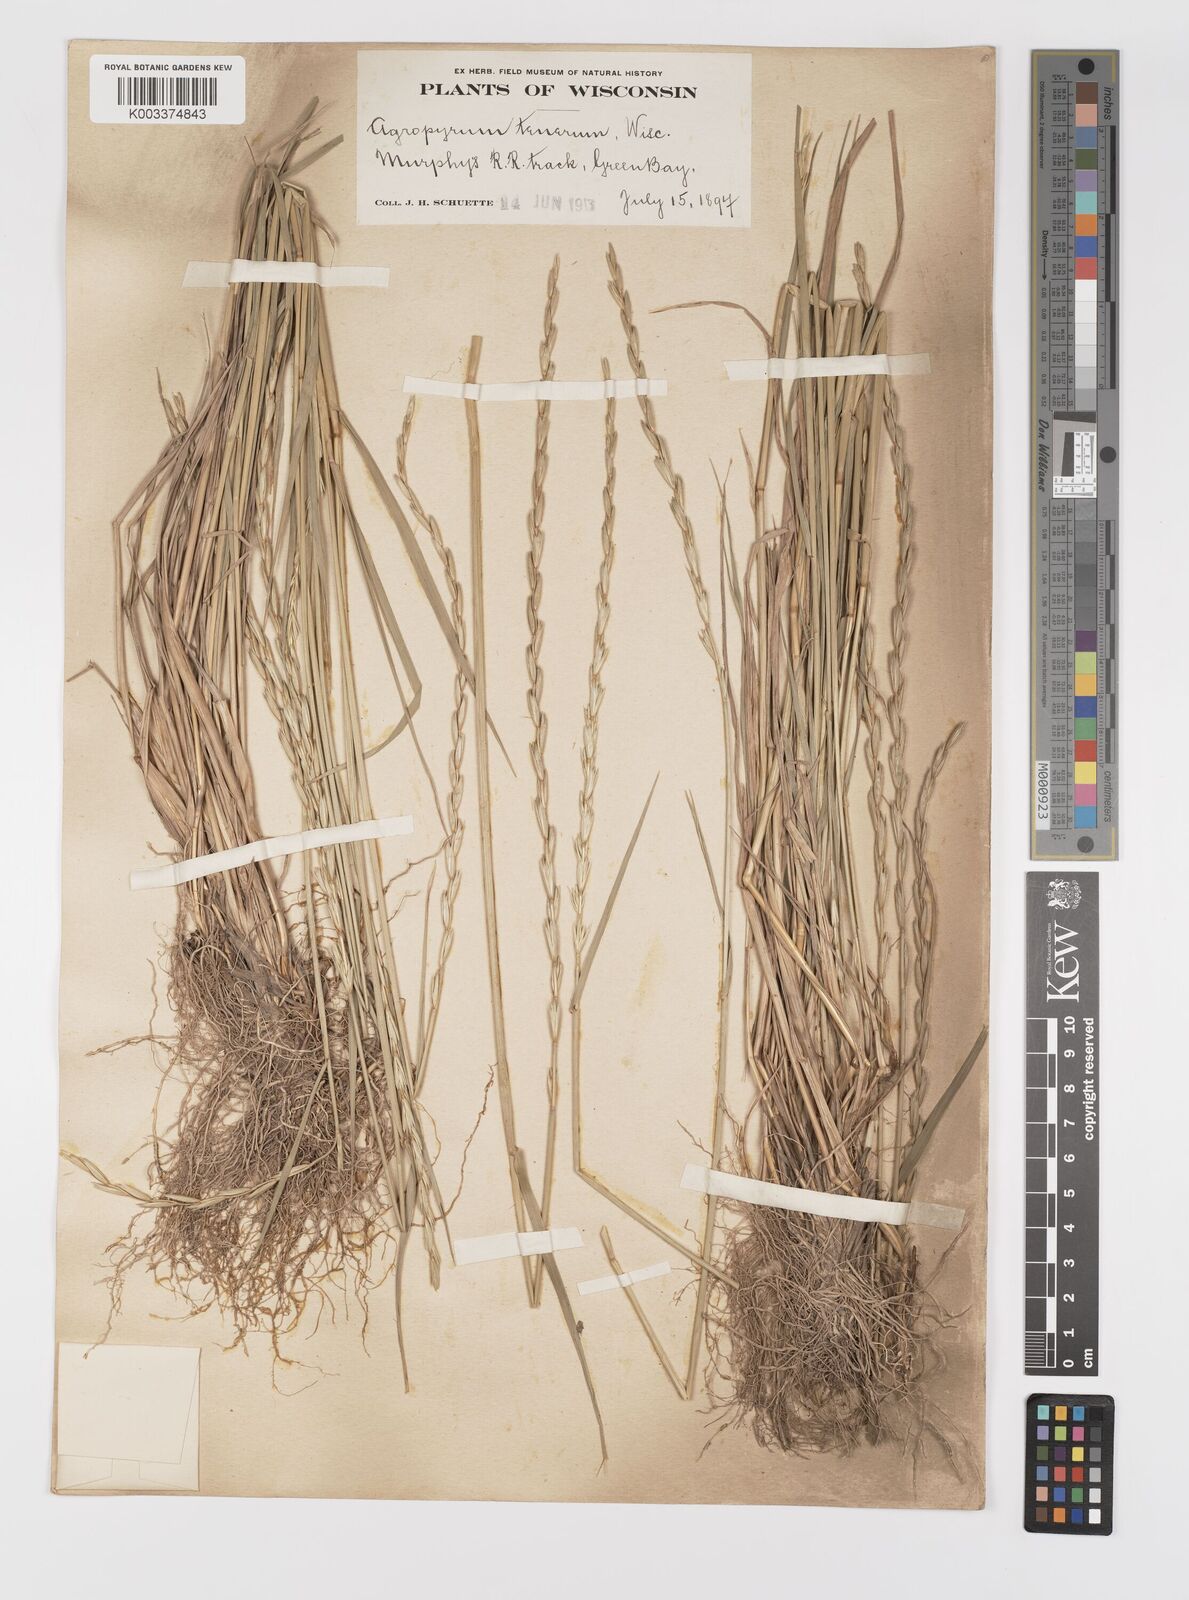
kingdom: Plantae
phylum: Tracheophyta
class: Liliopsida
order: Poales
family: Poaceae
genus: Elymus
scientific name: Elymus violaceus
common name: Arctic wheatgrass
